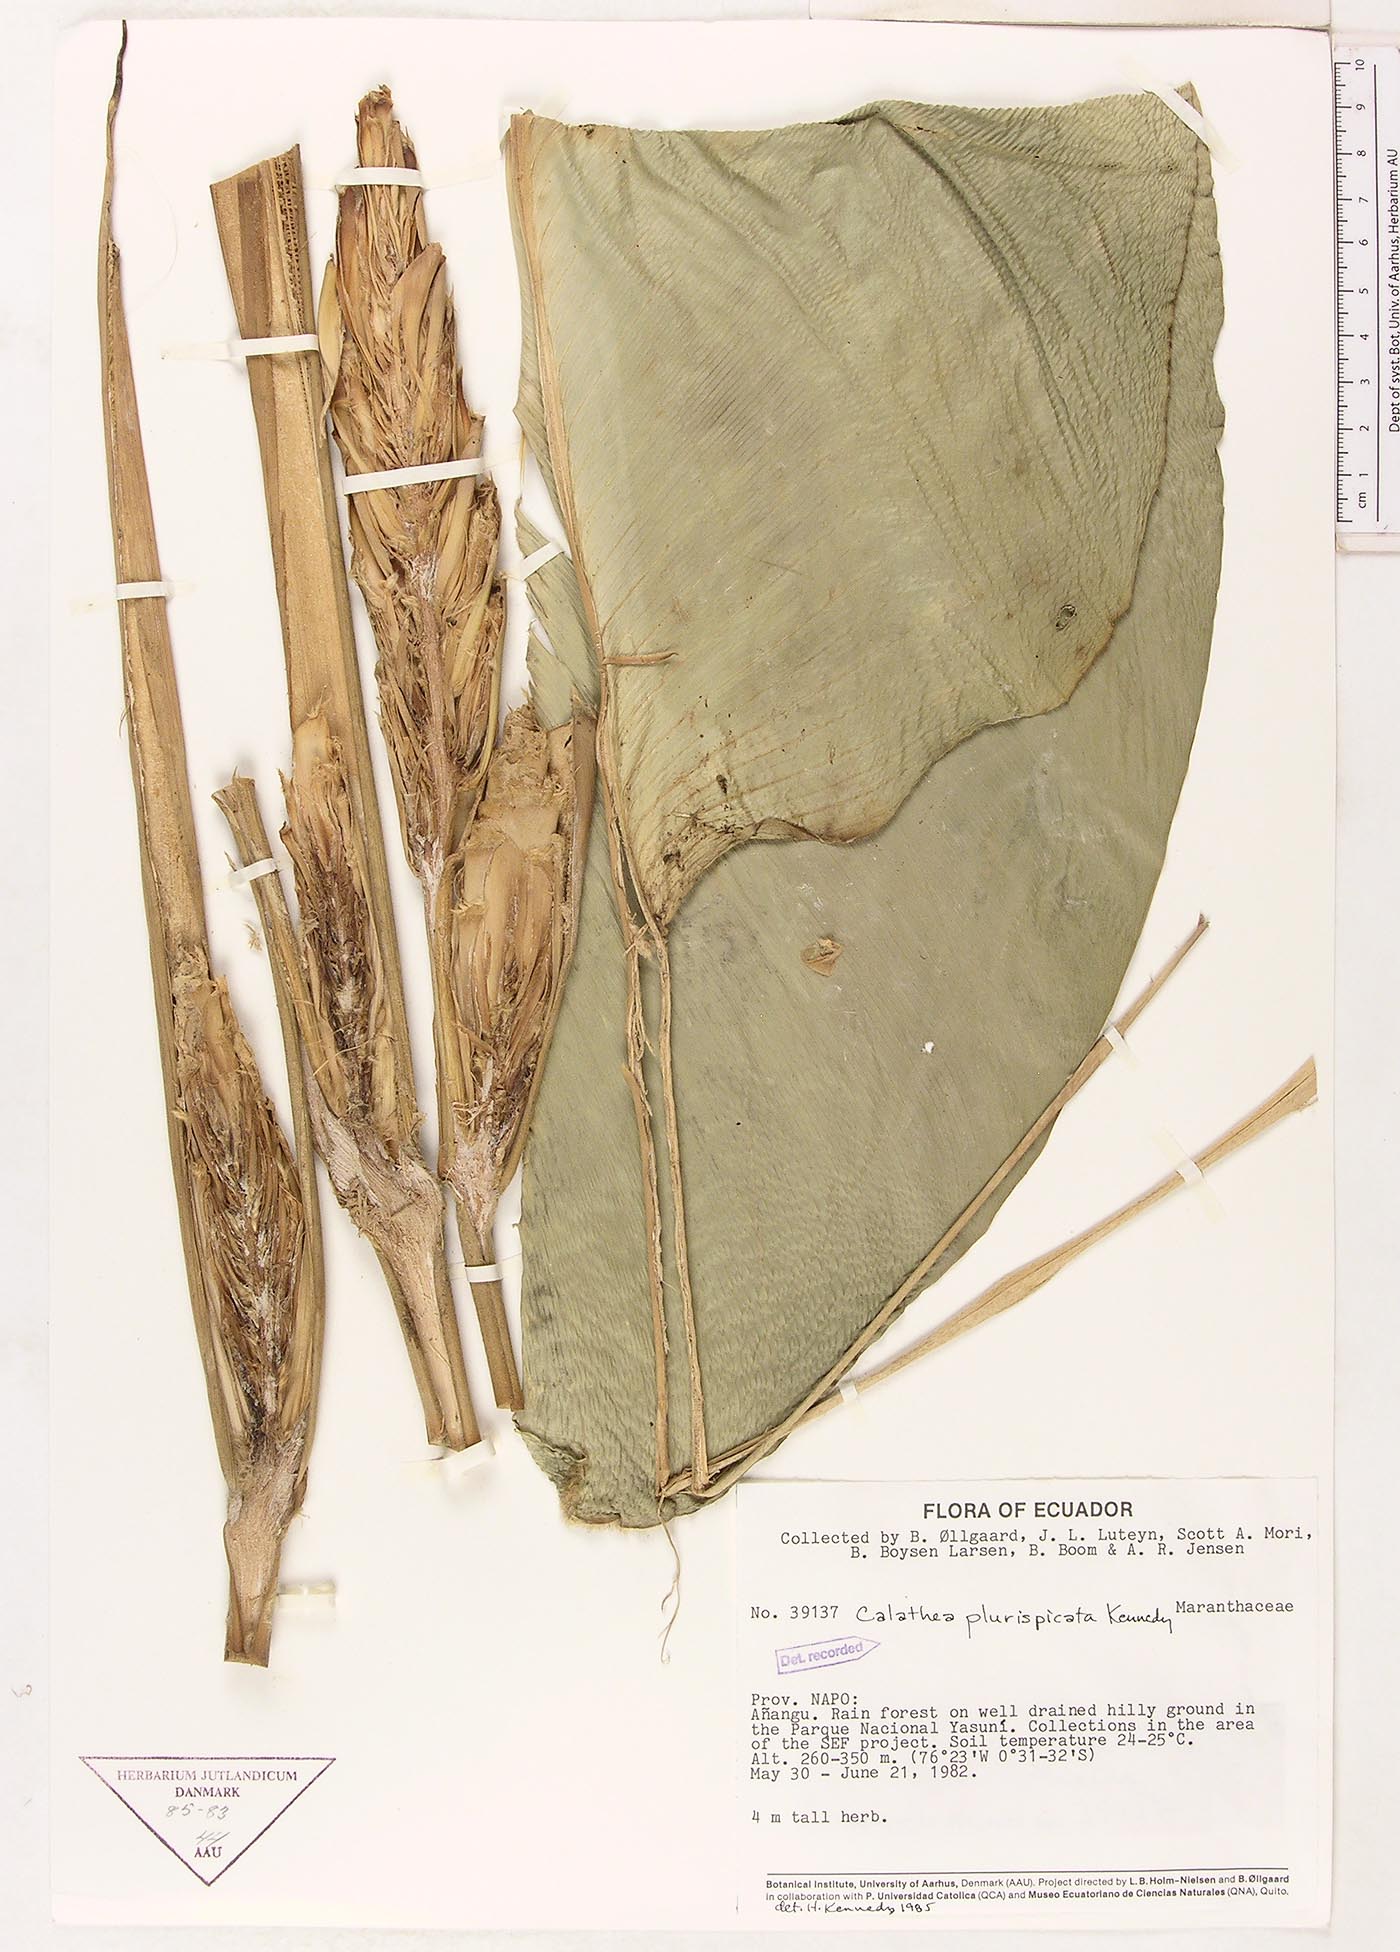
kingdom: Plantae
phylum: Tracheophyta
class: Liliopsida
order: Zingiberales
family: Marantaceae
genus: Calathea
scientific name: Calathea plurispicata
